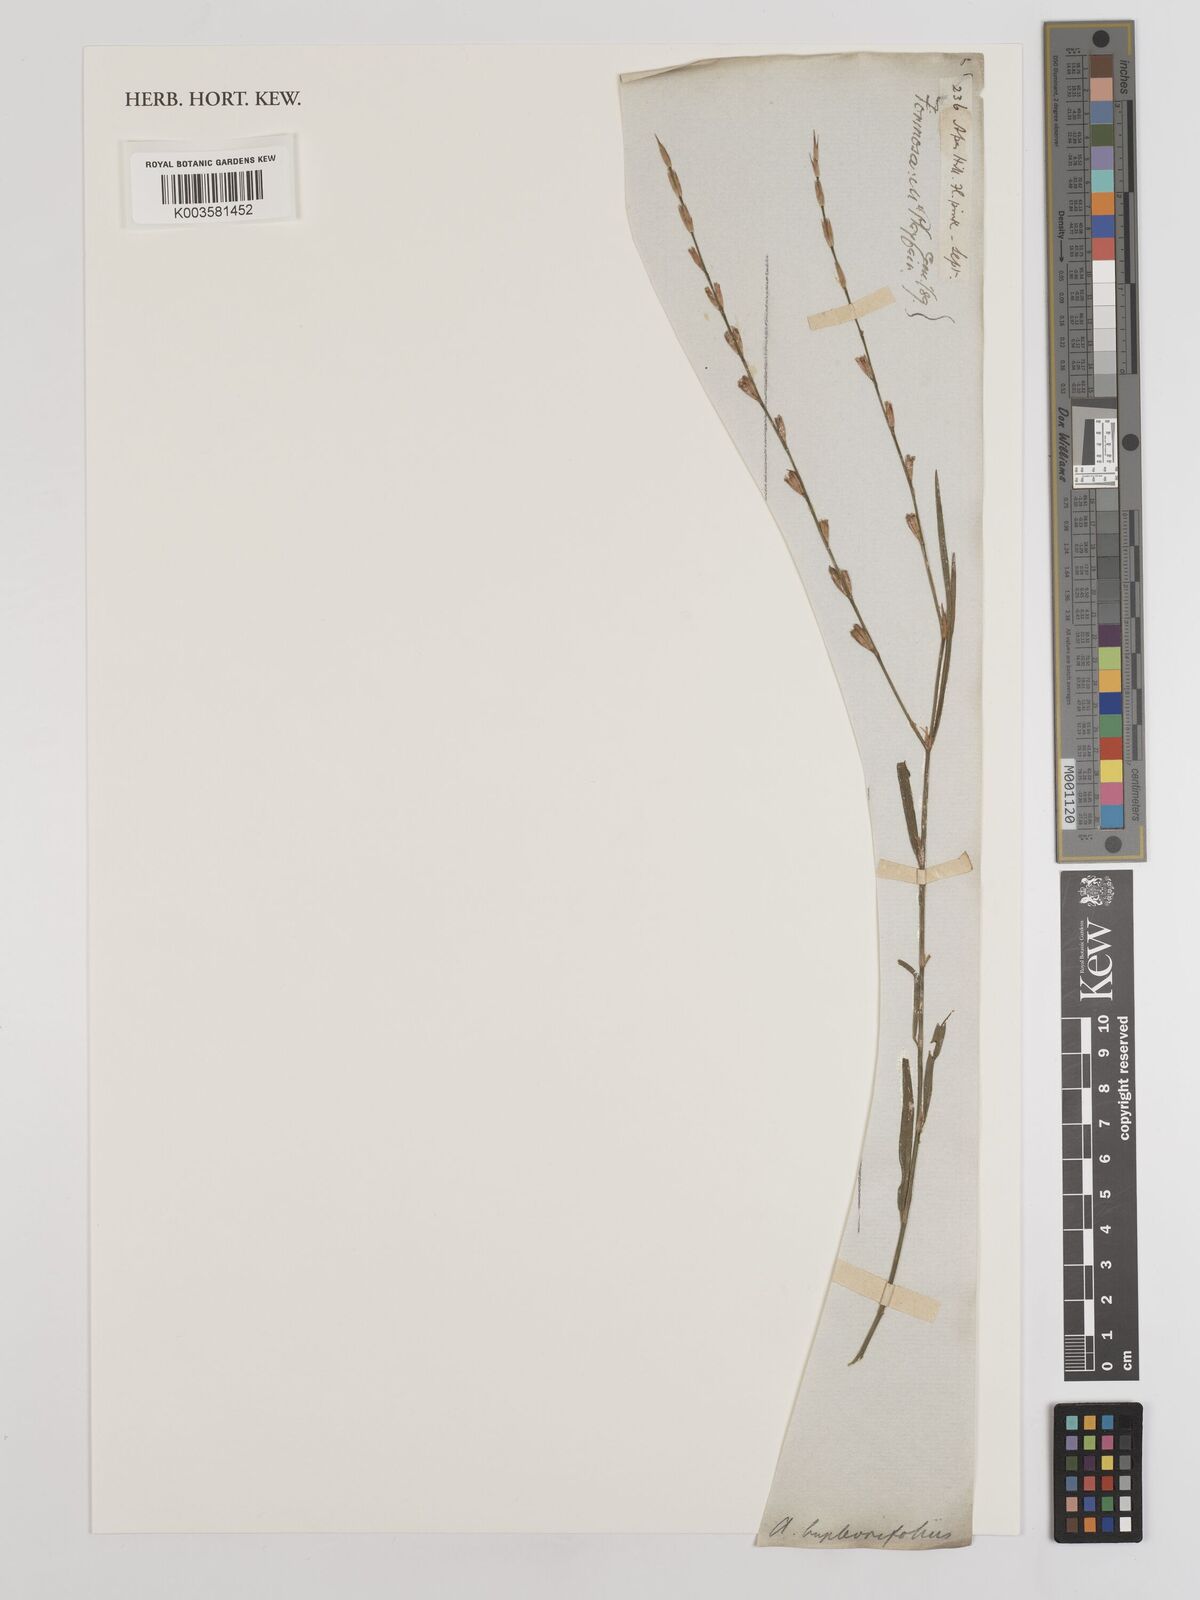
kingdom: Plantae
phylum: Tracheophyta
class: Magnoliopsida
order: Fabales
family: Fabaceae
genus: Alysicarpus
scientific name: Alysicarpus bupleurifolius
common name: Sweet alys
